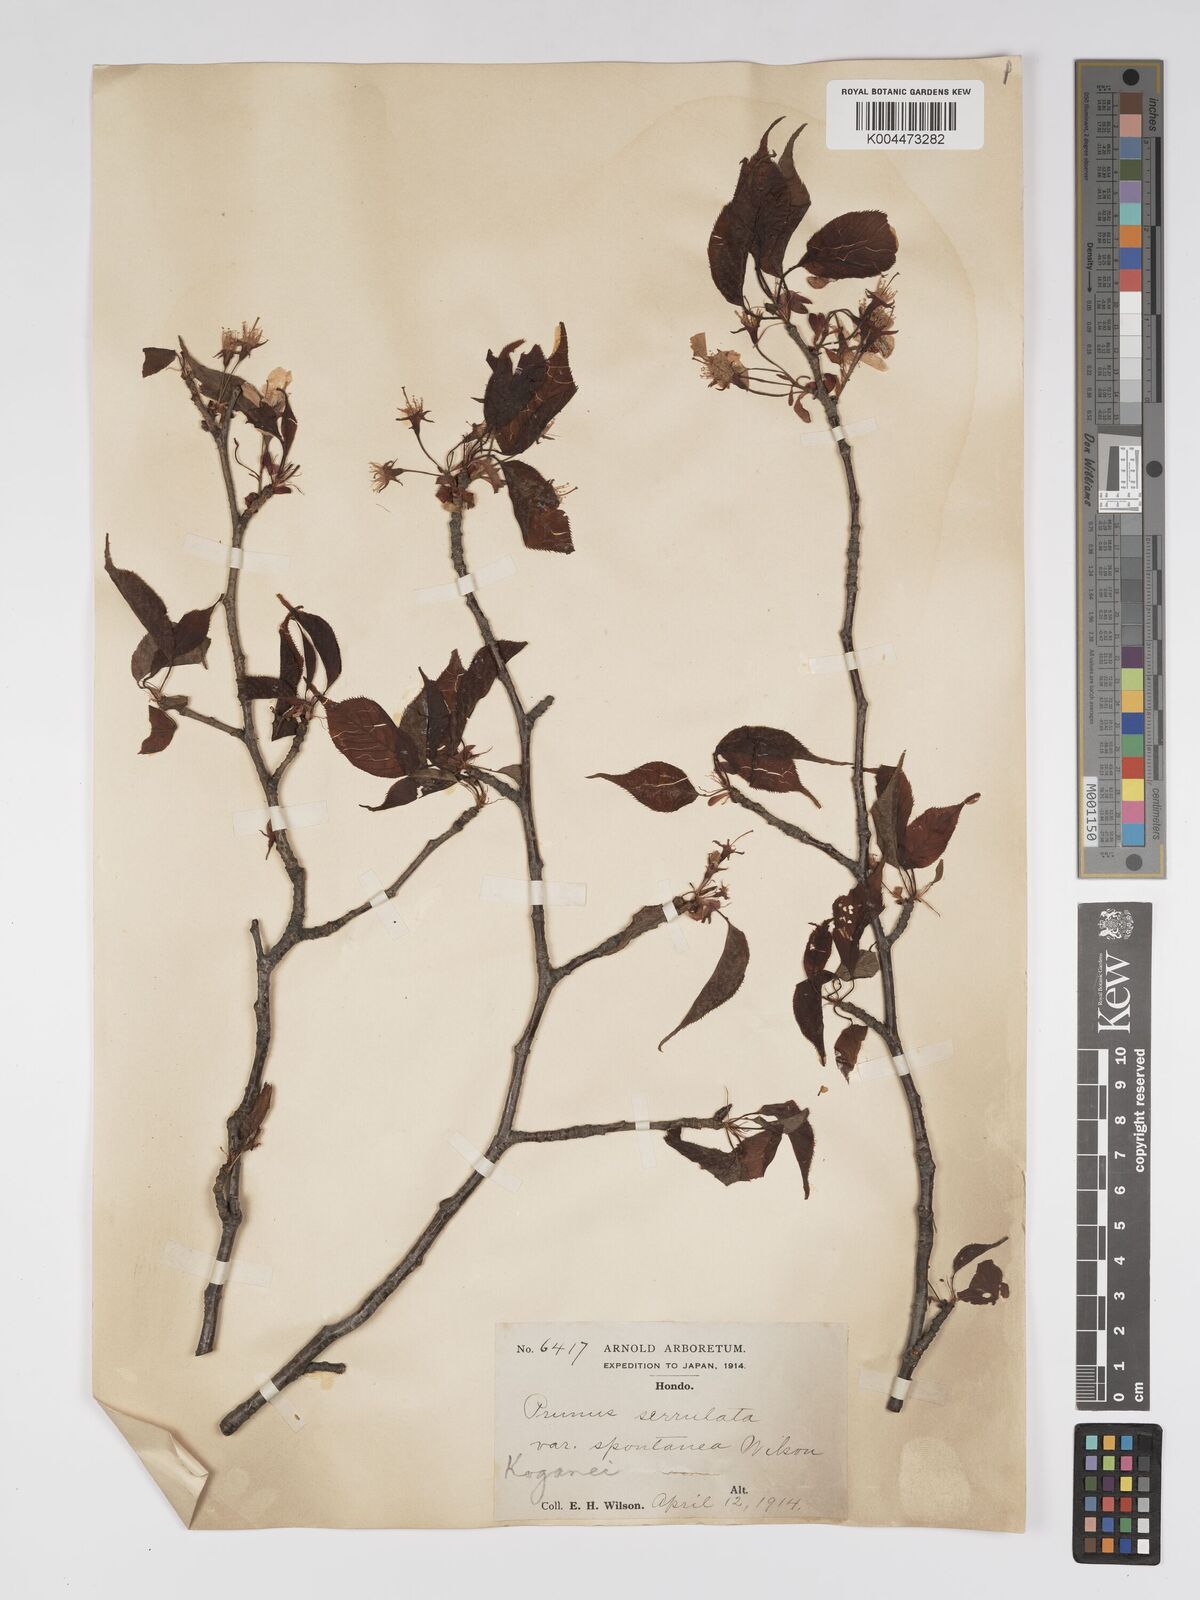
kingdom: Plantae
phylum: Tracheophyta
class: Magnoliopsida
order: Rosales
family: Rosaceae
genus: Prunus
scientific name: Prunus serrulata
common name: Japanese cherry
